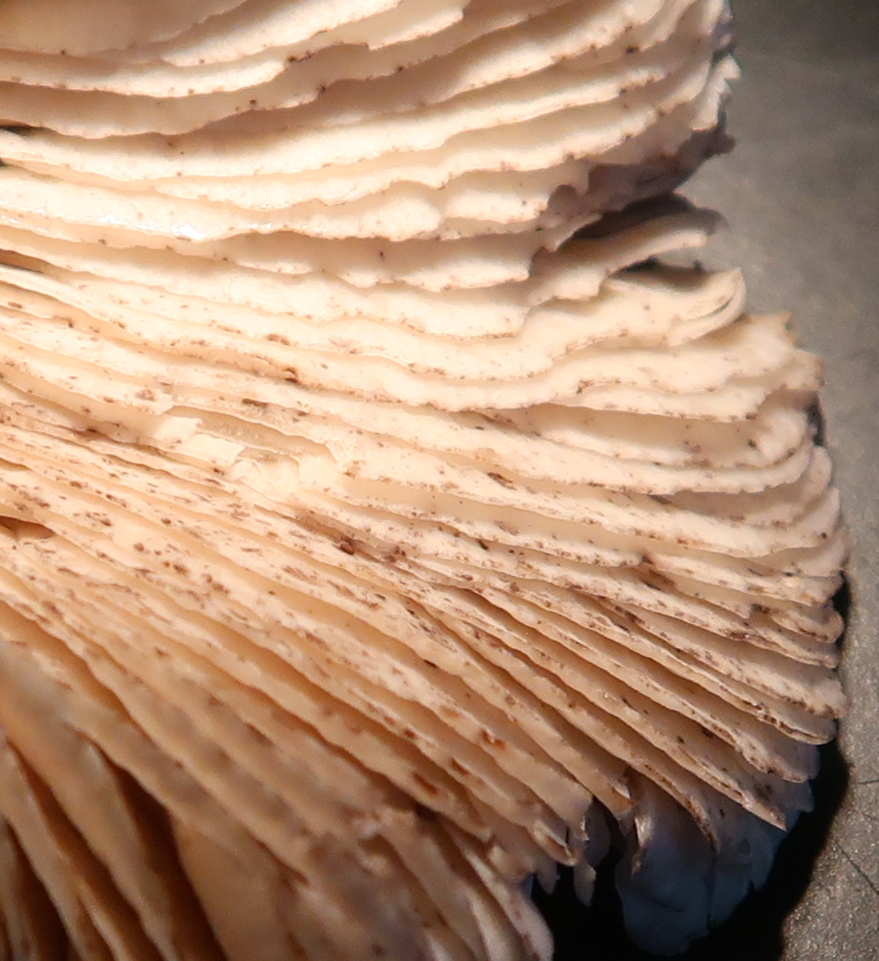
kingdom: Fungi
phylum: Basidiomycota
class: Agaricomycetes
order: Agaricales
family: Tricholomataceae
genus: Tricholoma
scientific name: Tricholoma sciodes
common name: stribet ridderhat
